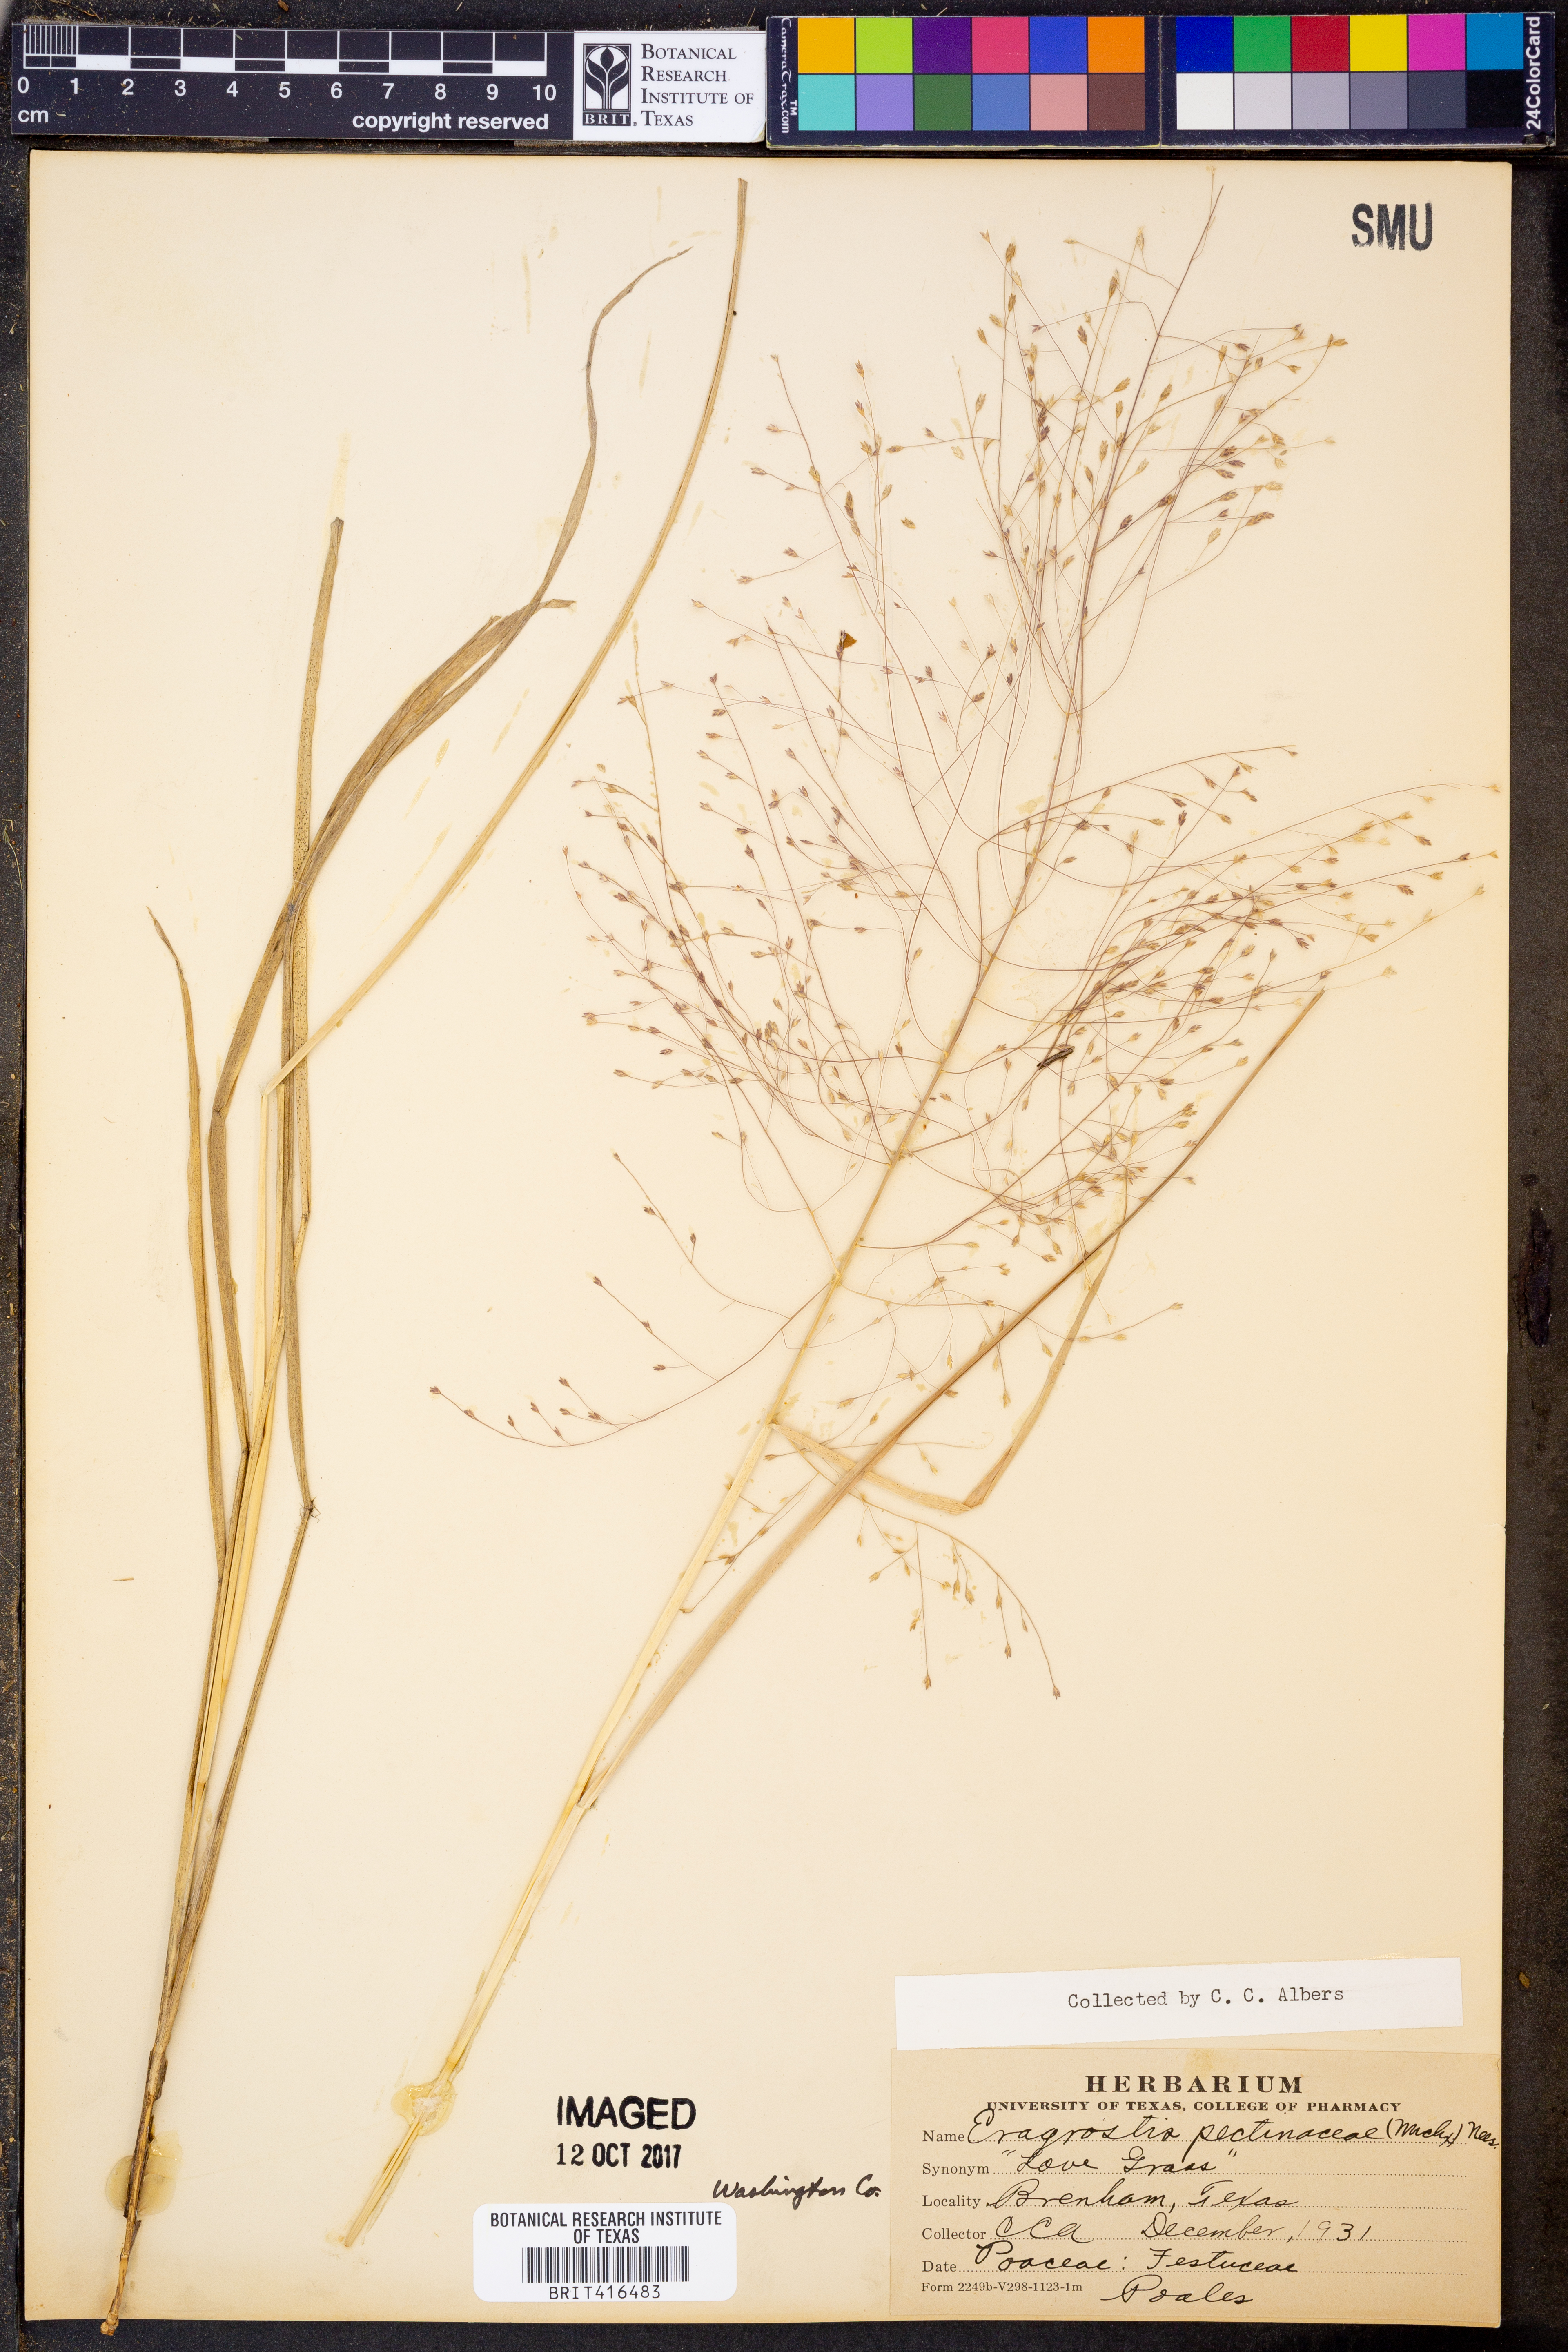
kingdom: Plantae
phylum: Tracheophyta
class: Liliopsida
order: Poales
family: Poaceae
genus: Eragrostis
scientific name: Eragrostis pectinacea
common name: Tufted lovegrass
